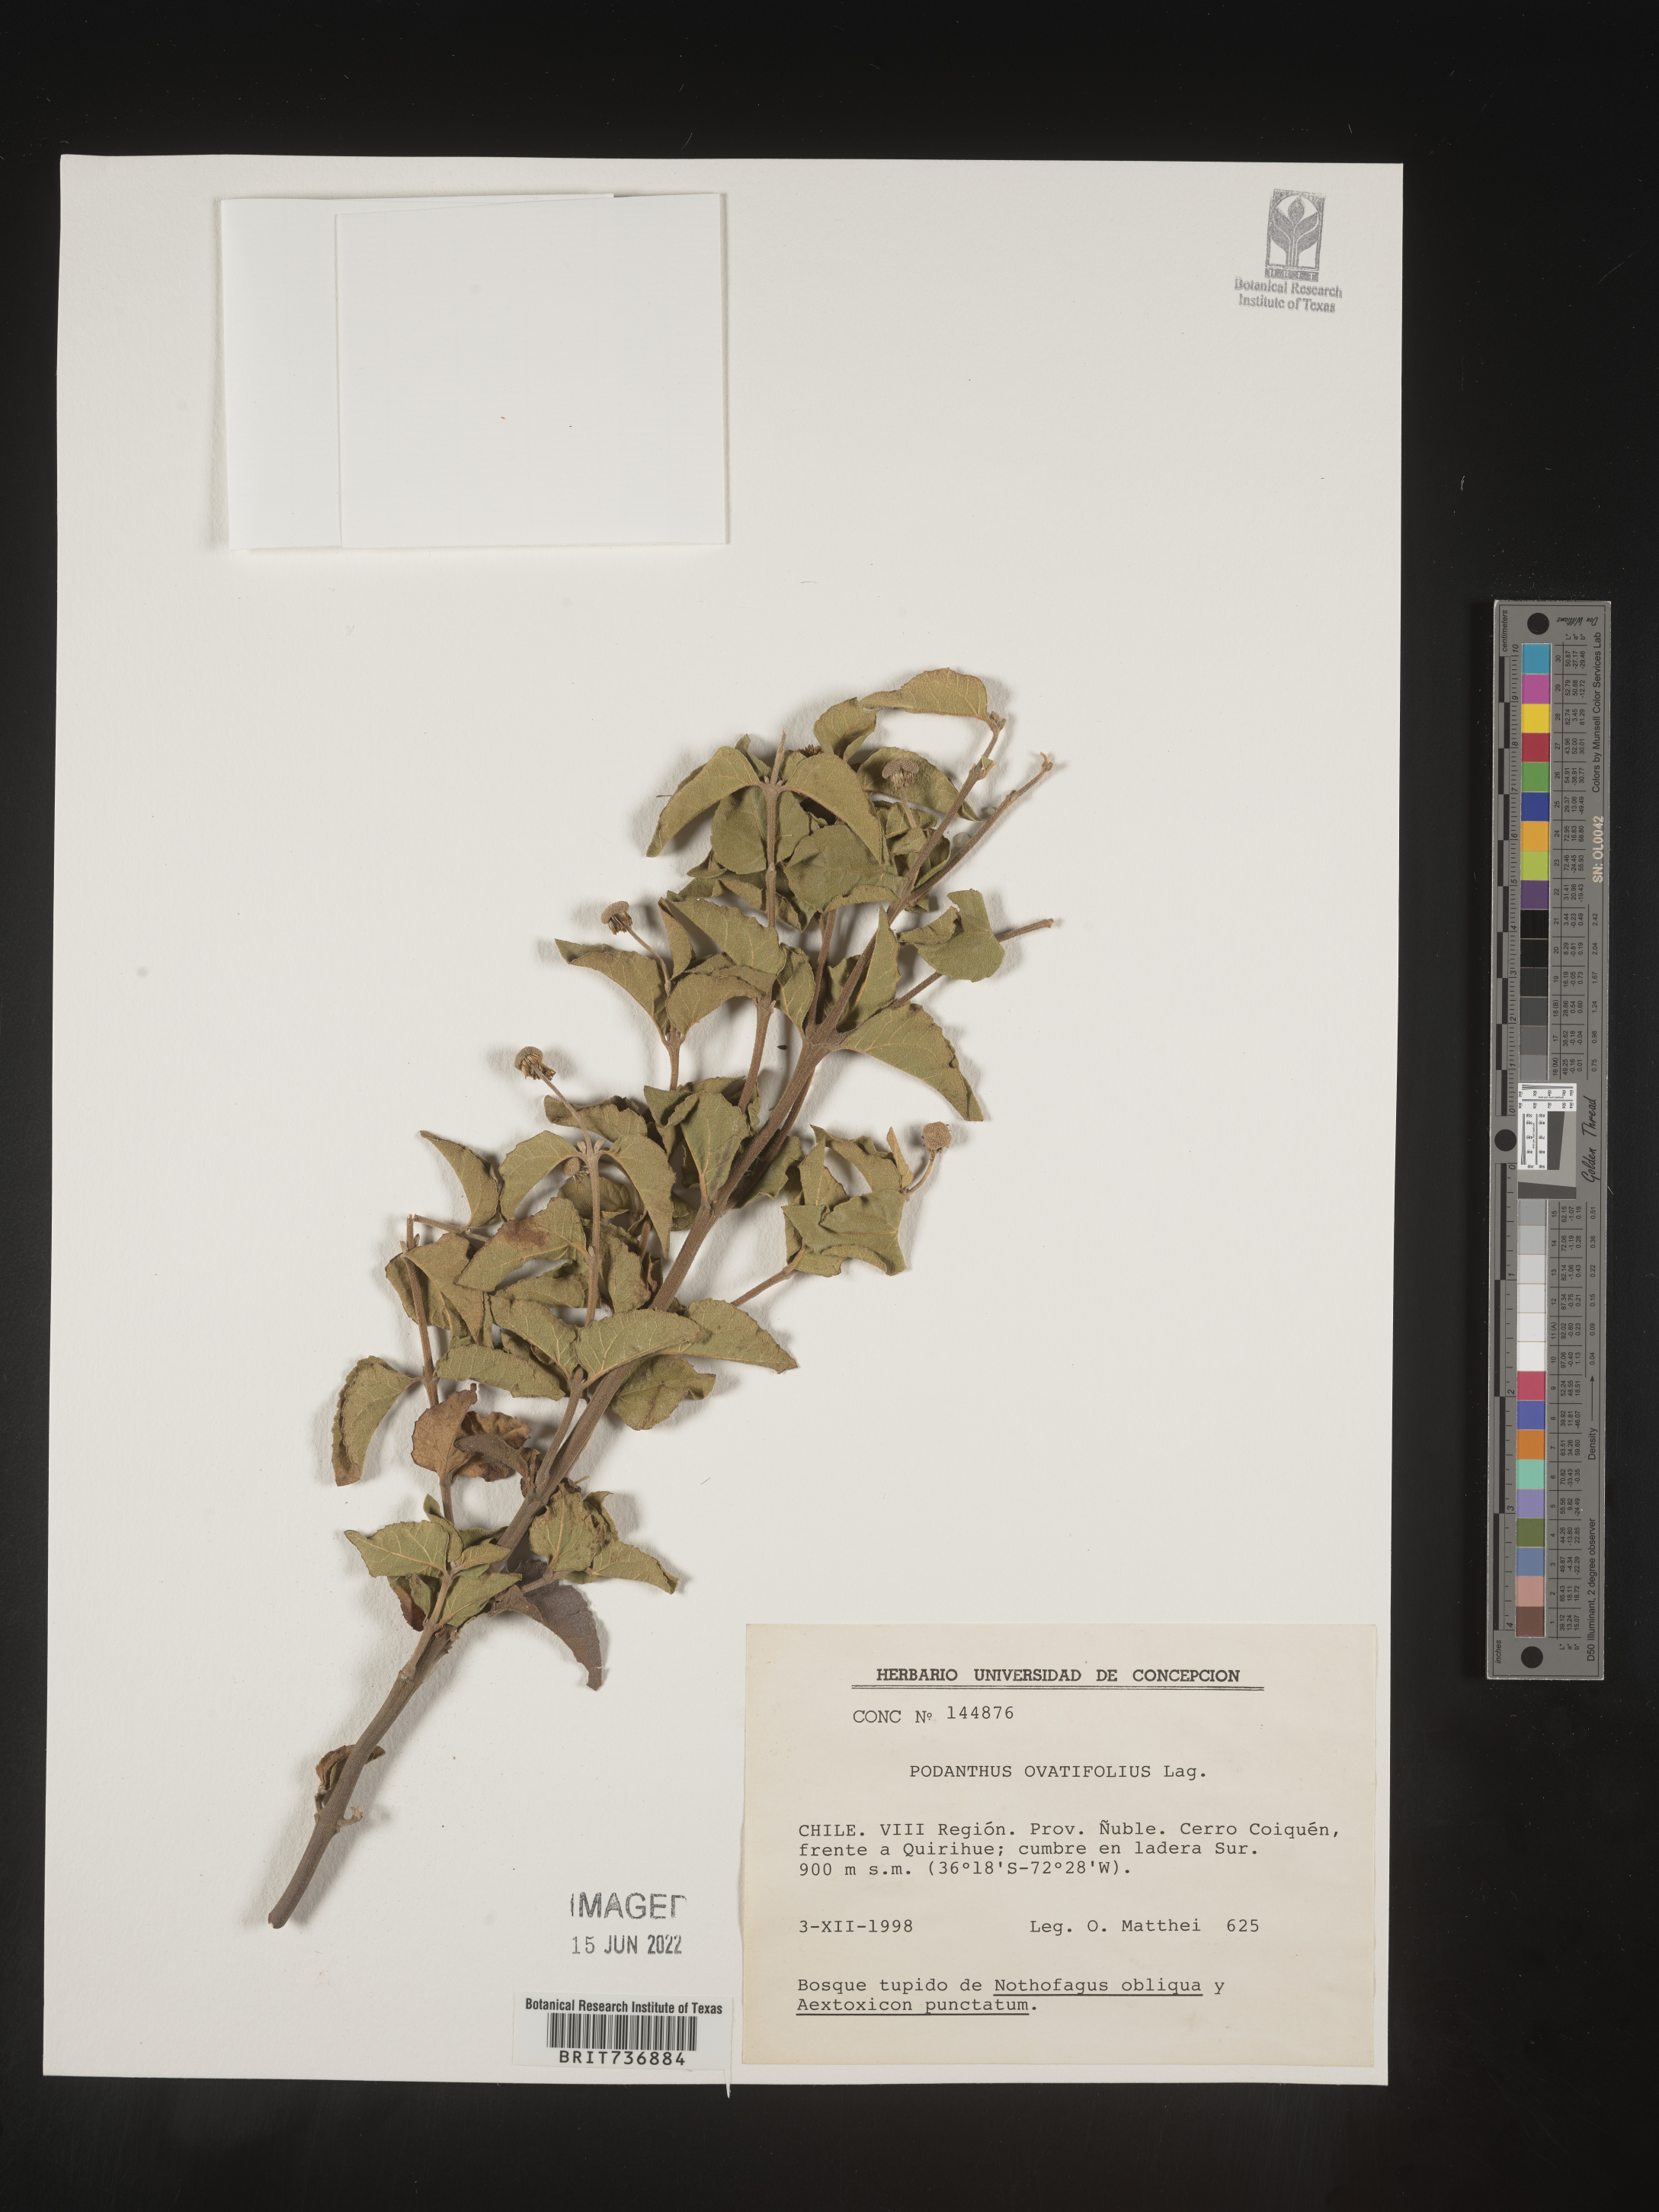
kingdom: Plantae
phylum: Tracheophyta
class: Magnoliopsida
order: Asterales
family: Asteraceae
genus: Podanthus
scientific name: Podanthus
